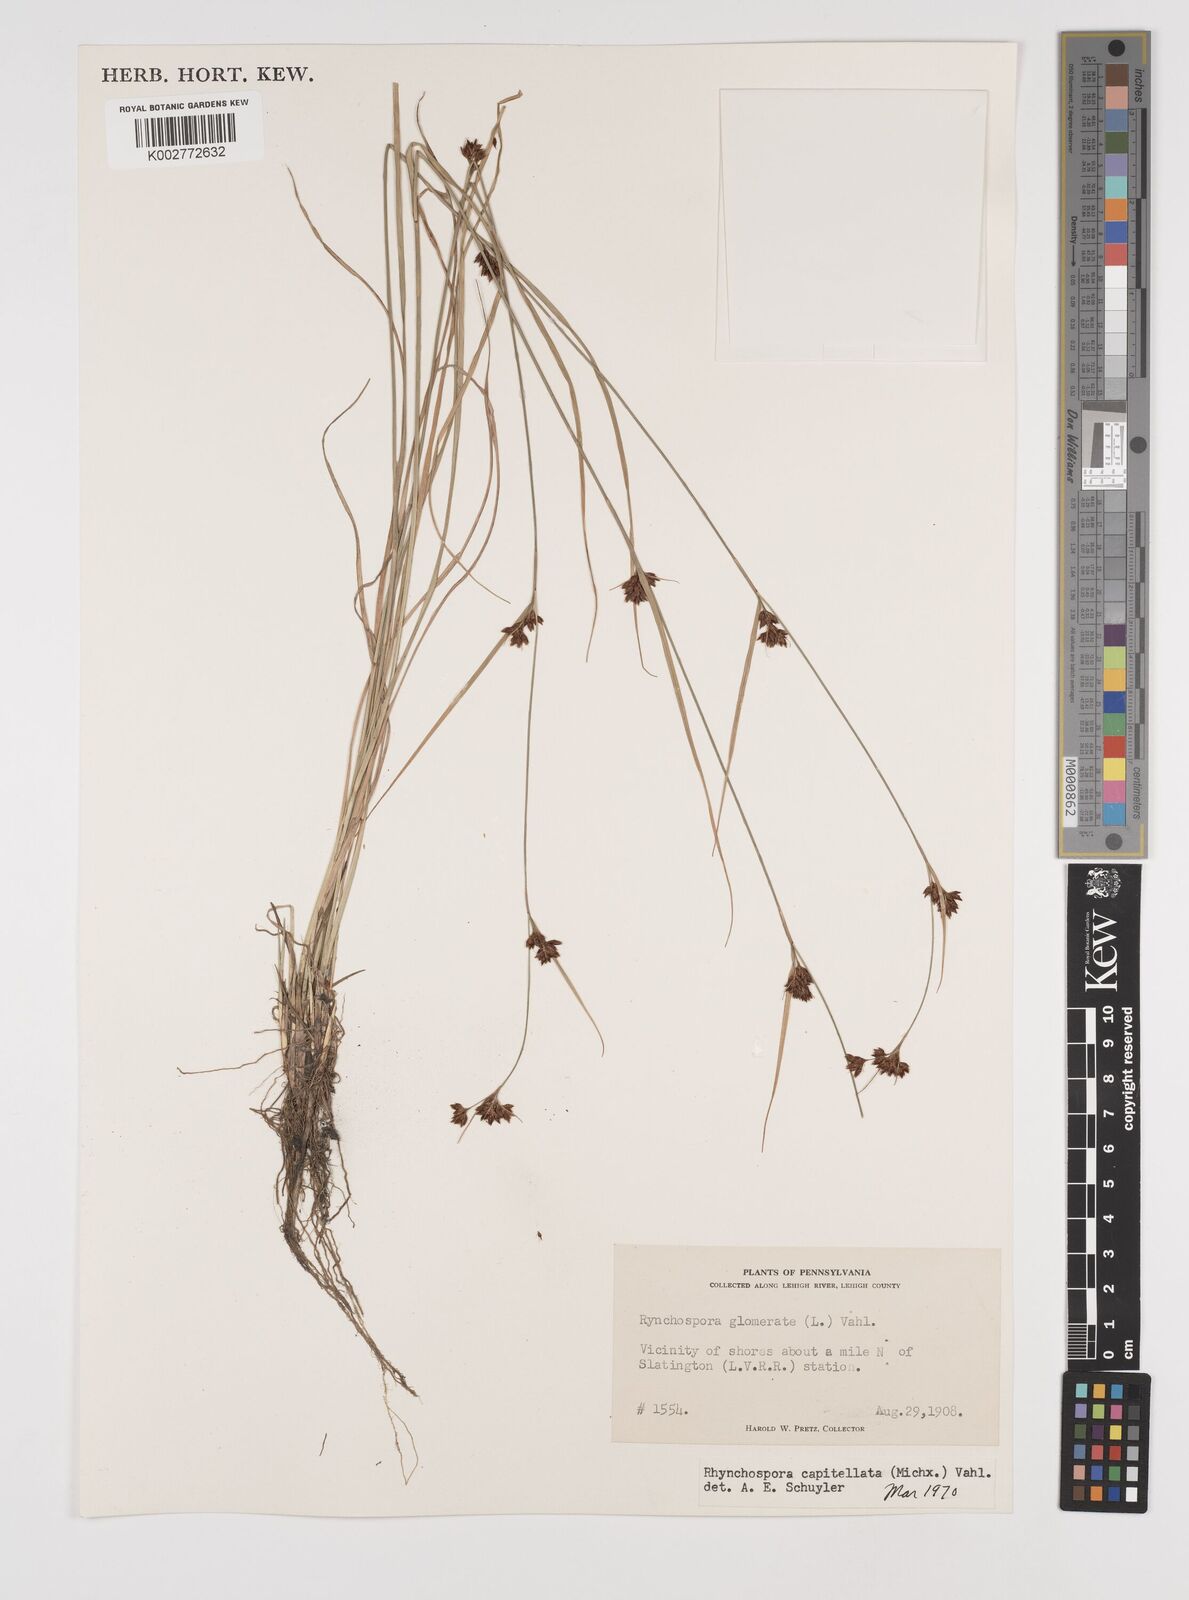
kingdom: Plantae
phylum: Tracheophyta
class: Liliopsida
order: Poales
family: Cyperaceae
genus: Rhynchospora
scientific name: Rhynchospora capitellata
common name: Brownish beaksedge
